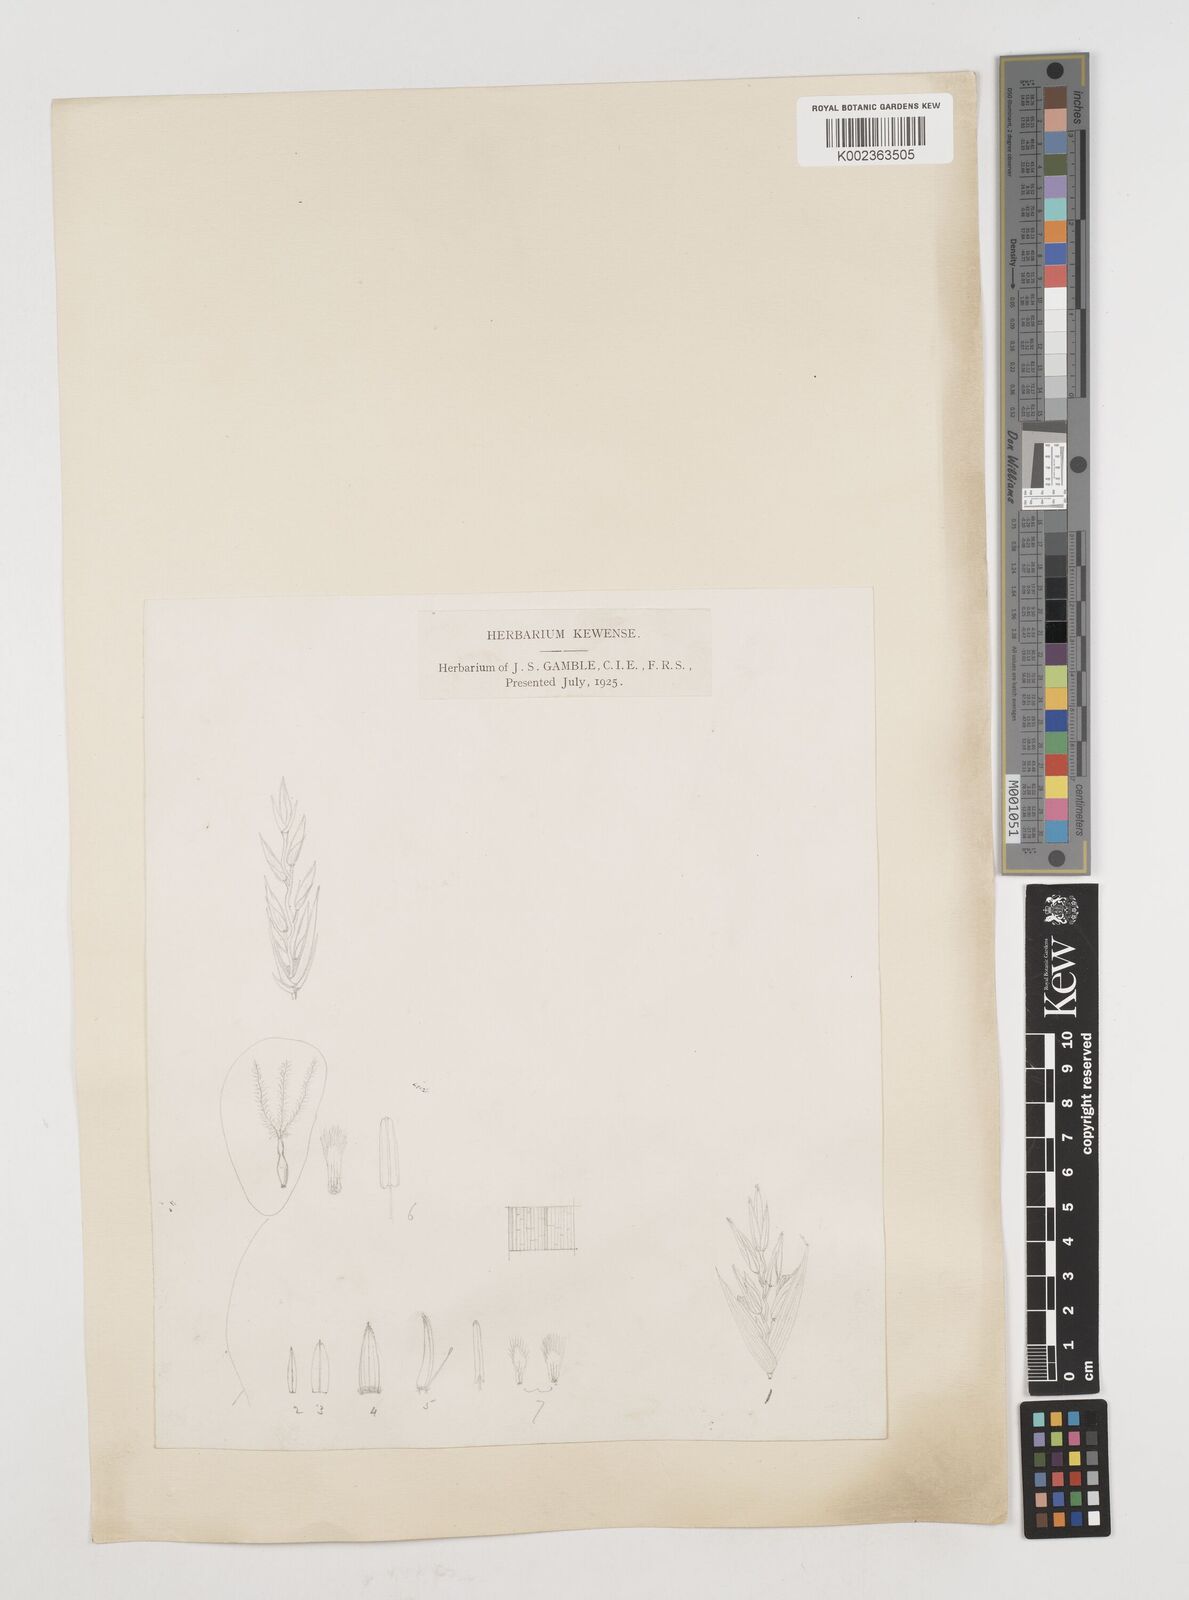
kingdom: Plantae
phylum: Tracheophyta
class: Liliopsida
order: Poales
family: Poaceae
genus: Himalayacalamus
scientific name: Himalayacalamus falconeri
